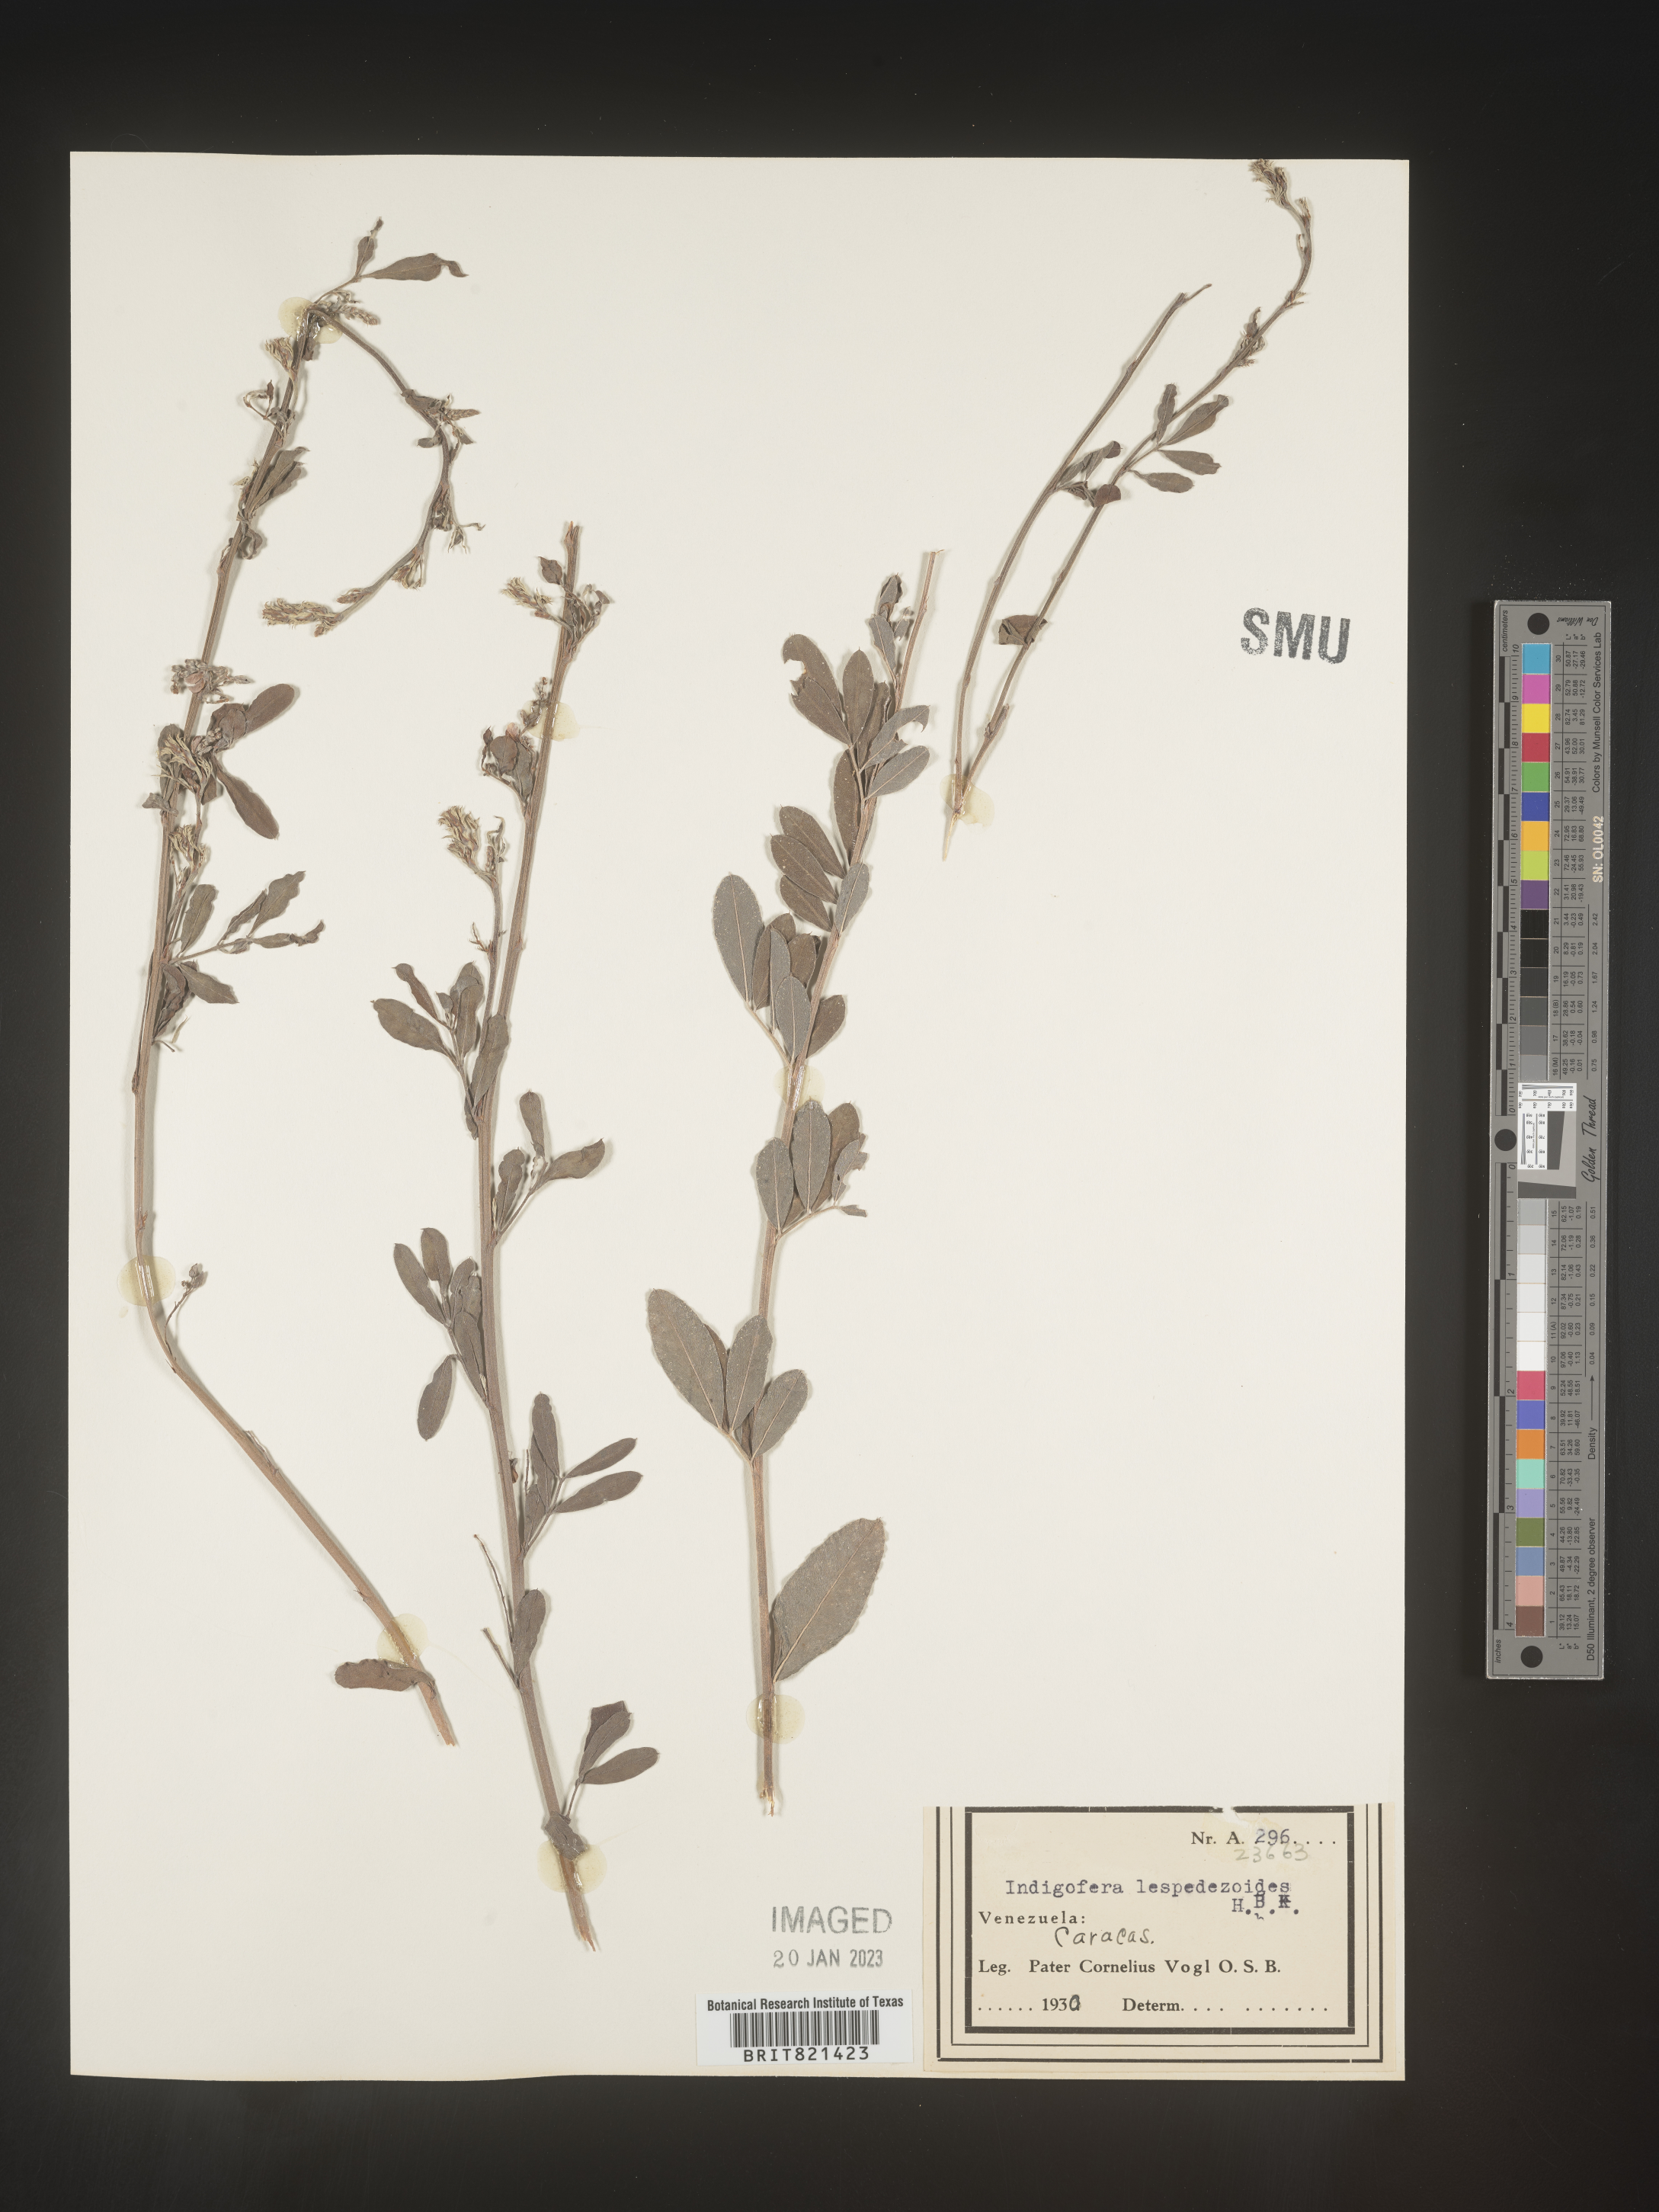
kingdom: Plantae
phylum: Tracheophyta
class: Magnoliopsida
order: Fabales
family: Fabaceae
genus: Indigofera
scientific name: Indigofera
